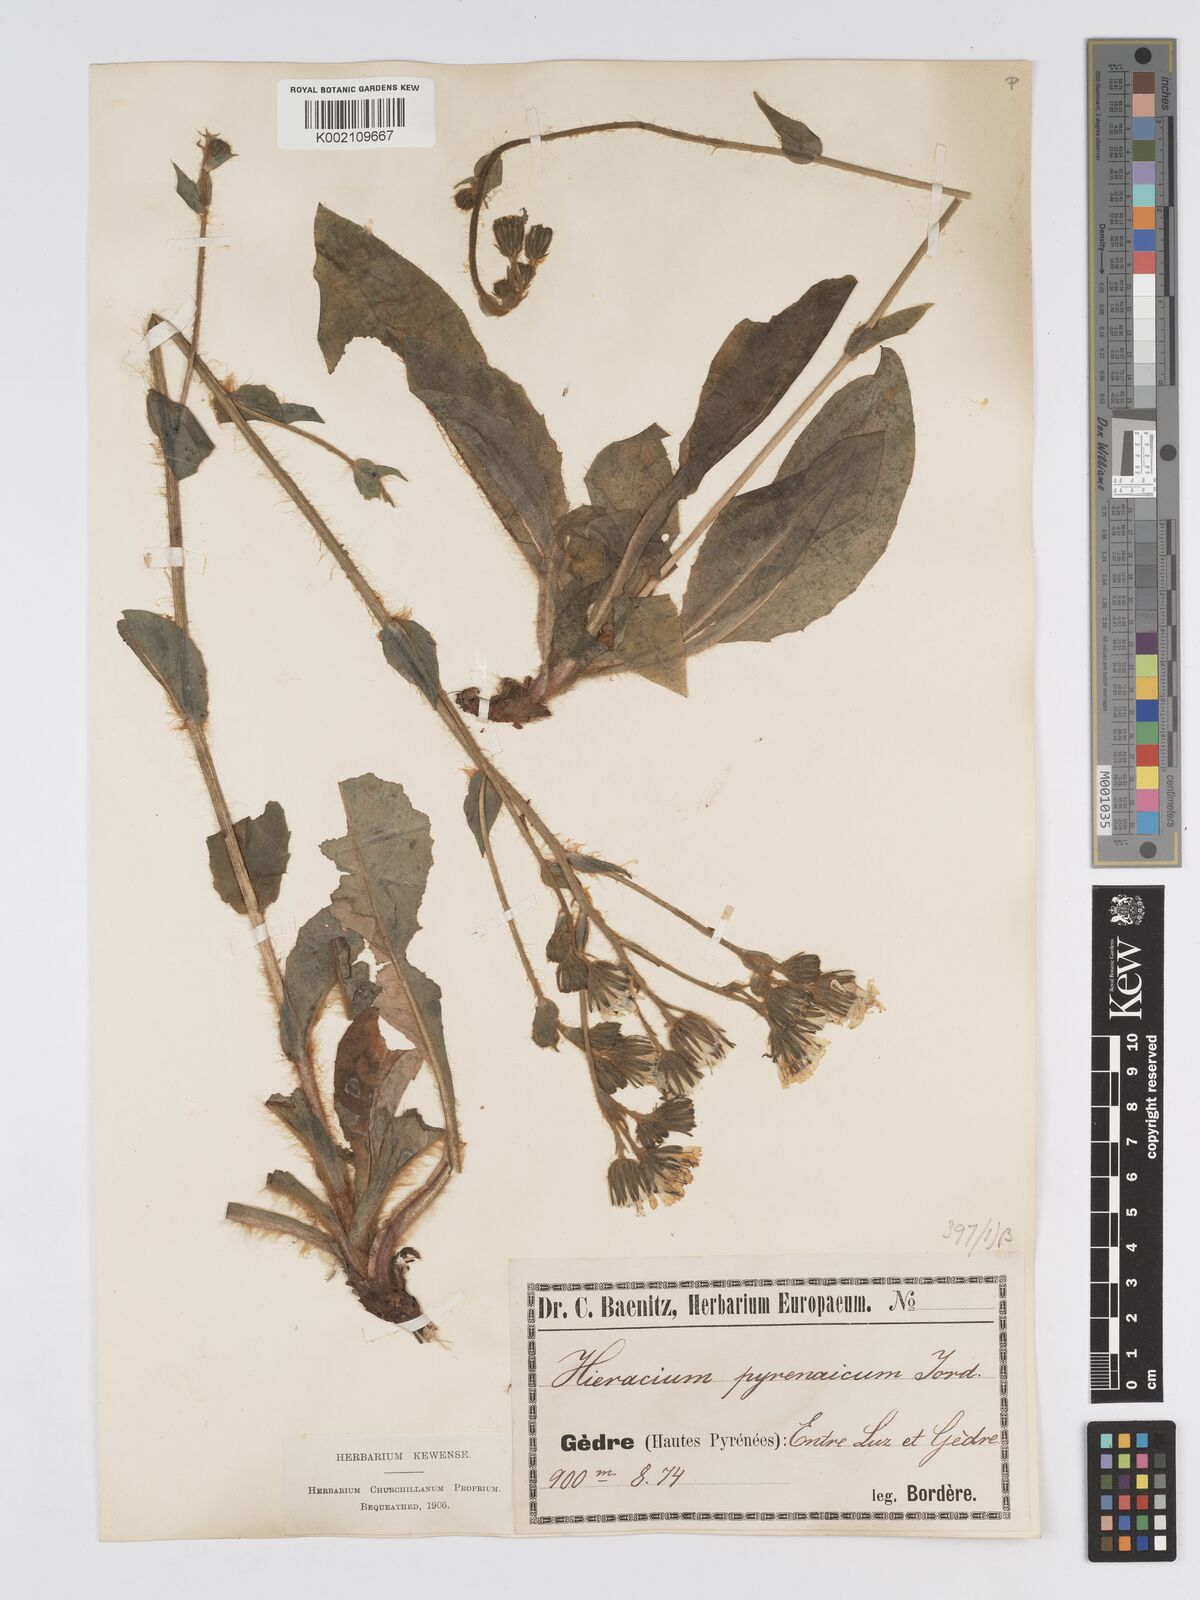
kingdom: Plantae
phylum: Tracheophyta
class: Magnoliopsida
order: Asterales
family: Asteraceae
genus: Hieracium
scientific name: Hieracium nobile
